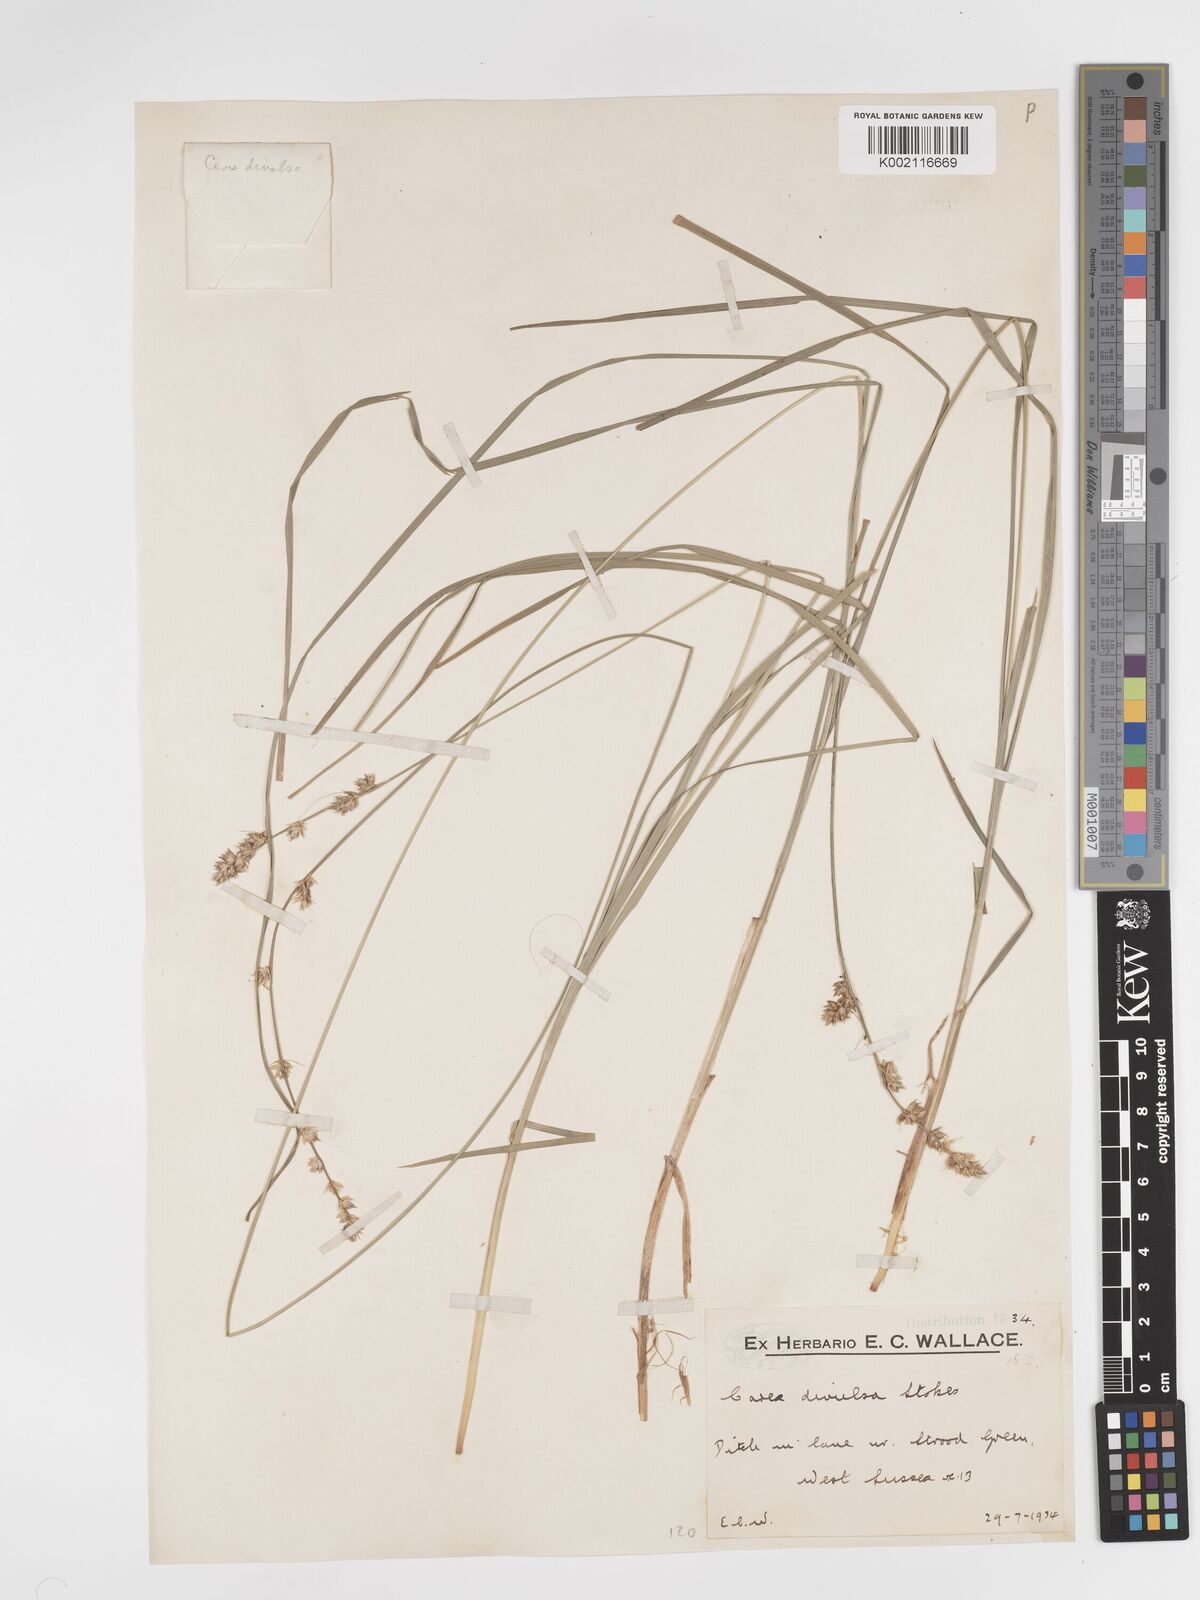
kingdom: Plantae
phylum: Tracheophyta
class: Liliopsida
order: Poales
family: Cyperaceae
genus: Carex
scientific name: Carex divulsa
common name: Grassland sedge
